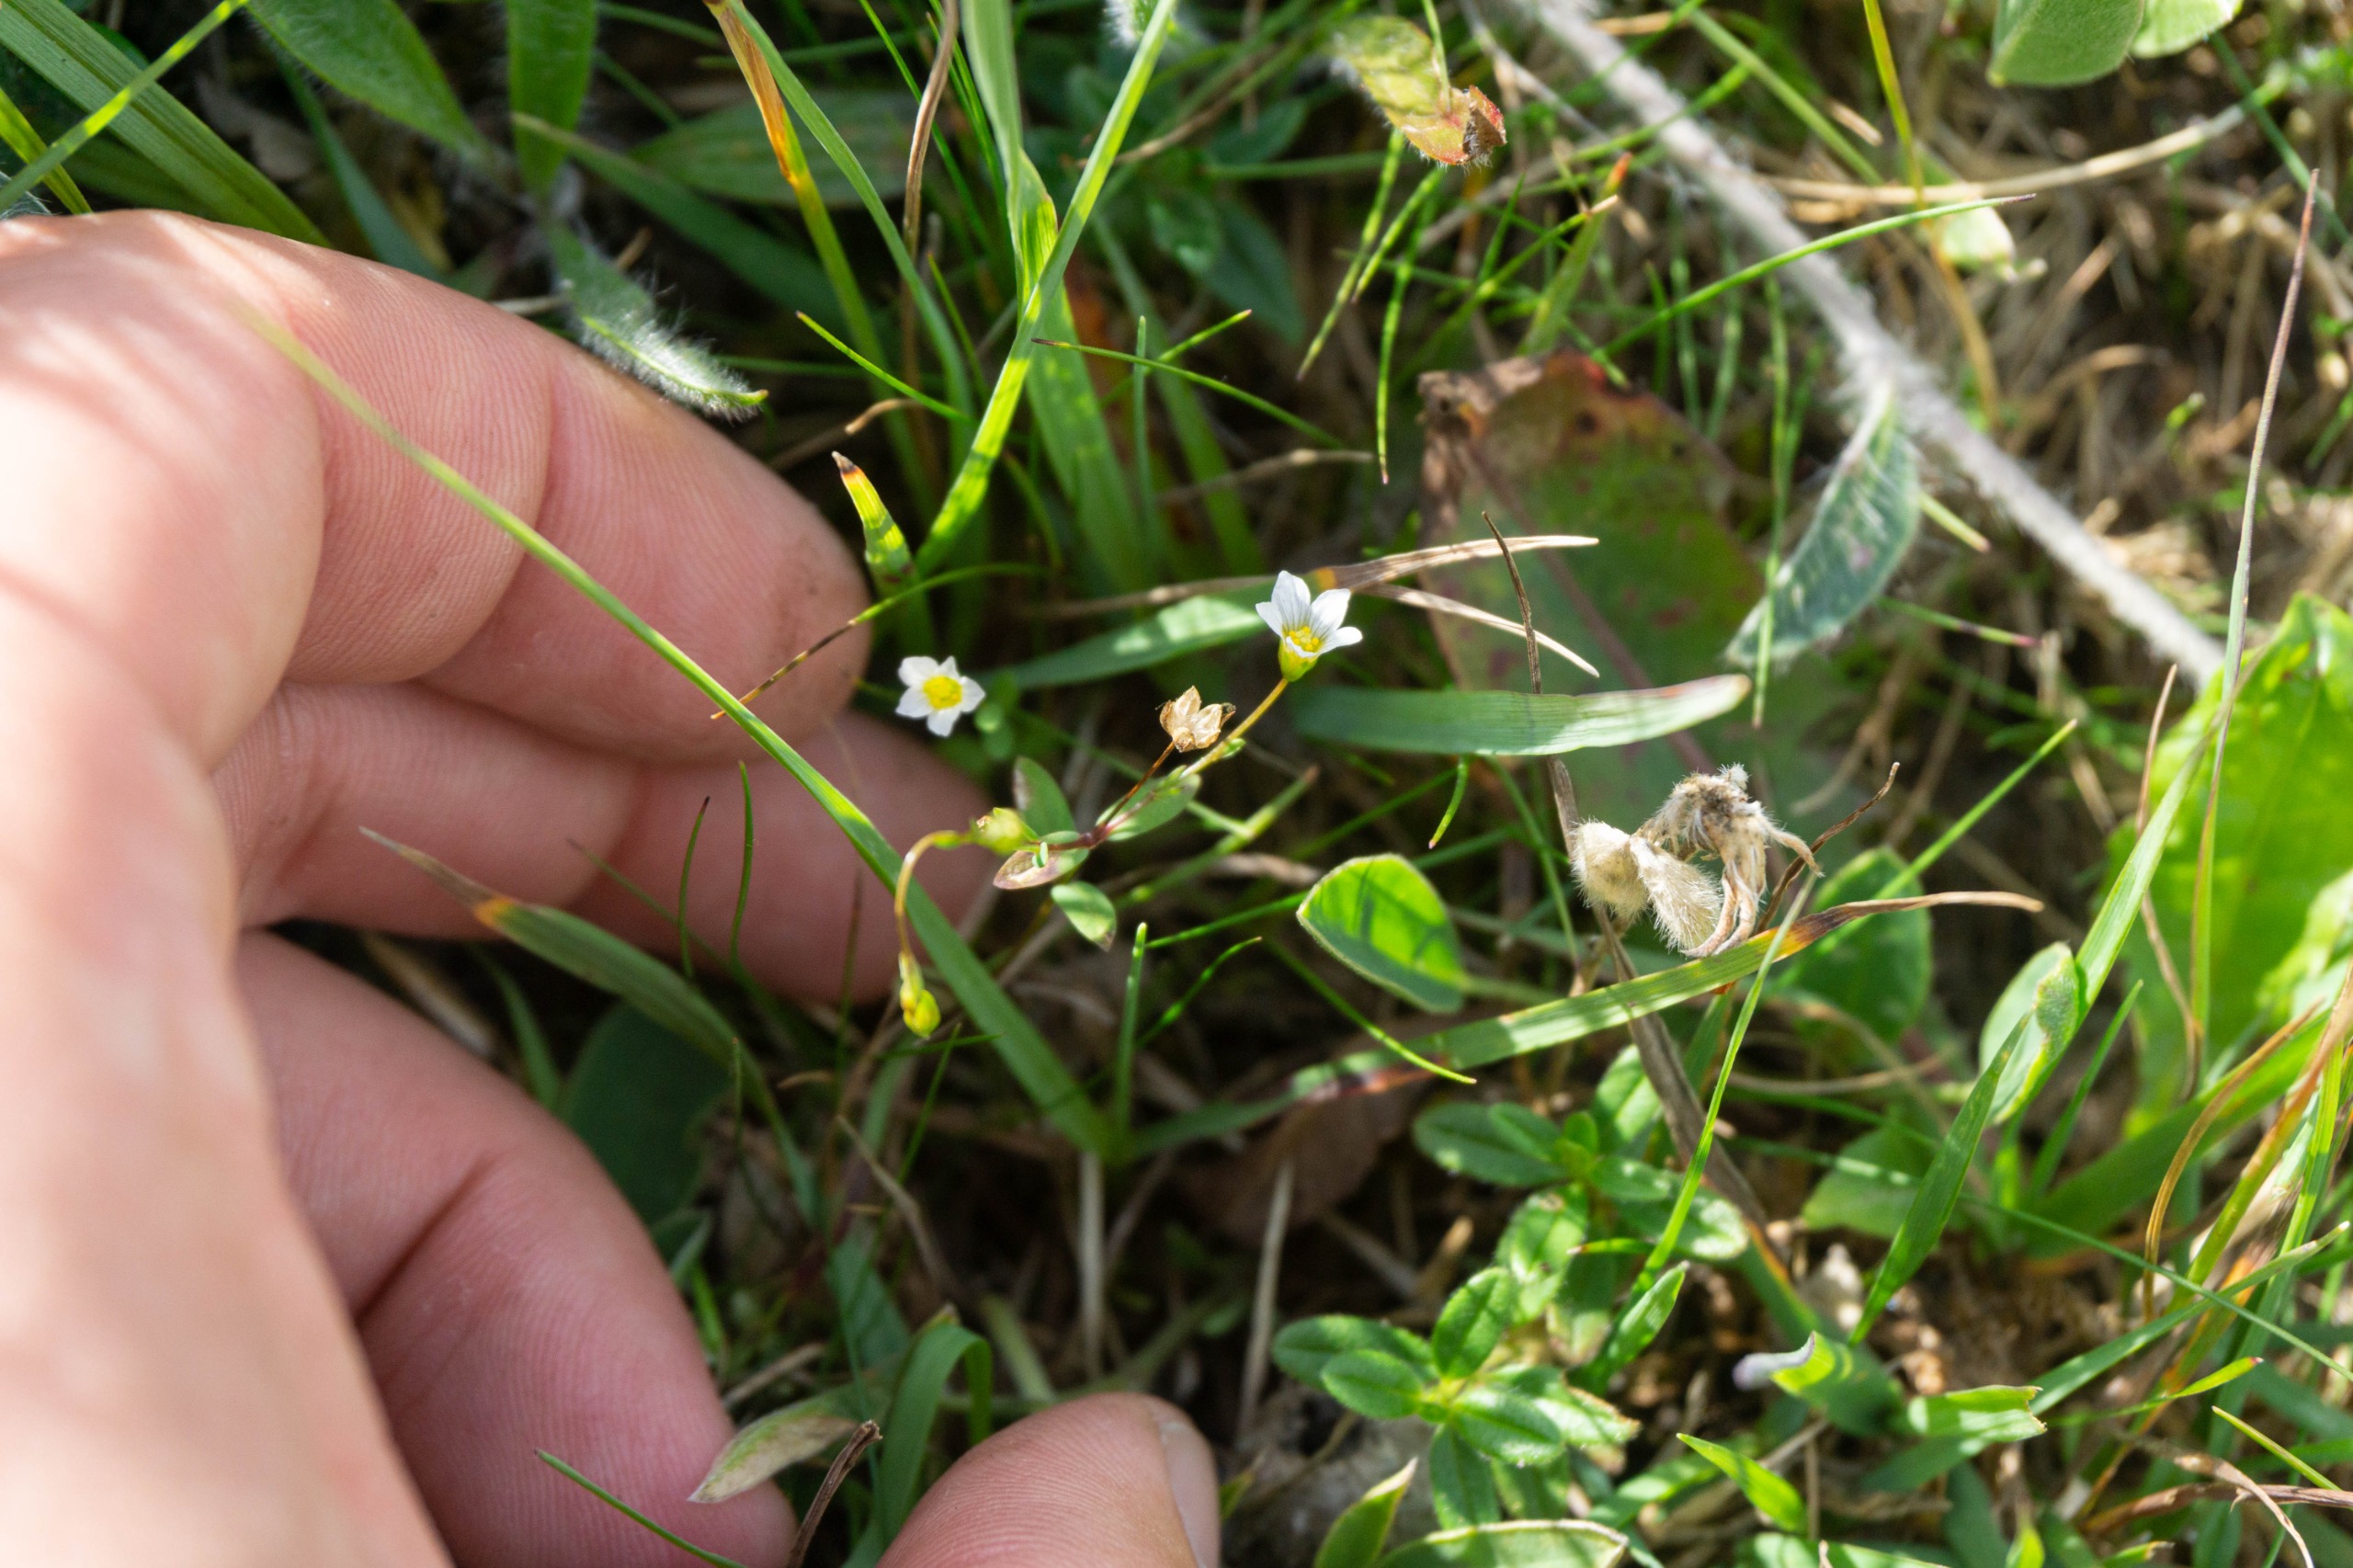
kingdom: Plantae
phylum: Tracheophyta
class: Magnoliopsida
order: Malpighiales
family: Linaceae
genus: Linum
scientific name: Linum catharticum
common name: Vild hør
